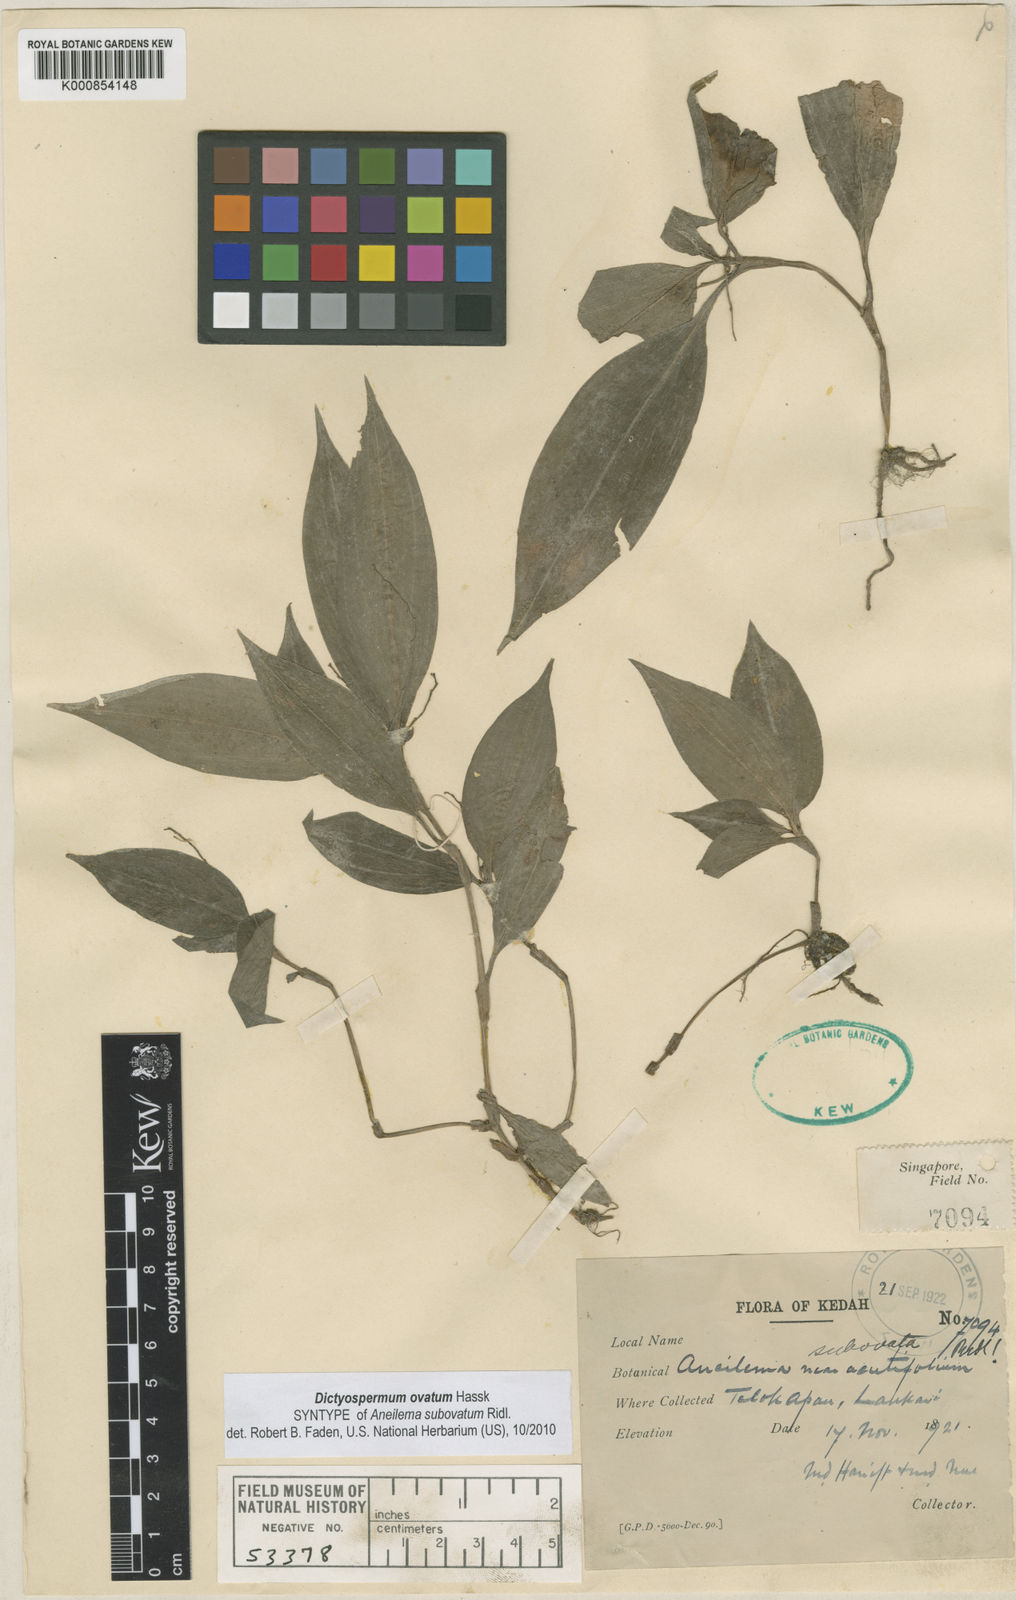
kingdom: Plantae
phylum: Tracheophyta
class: Liliopsida
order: Commelinales
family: Commelinaceae
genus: Dictyospermum
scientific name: Dictyospermum ovatum
